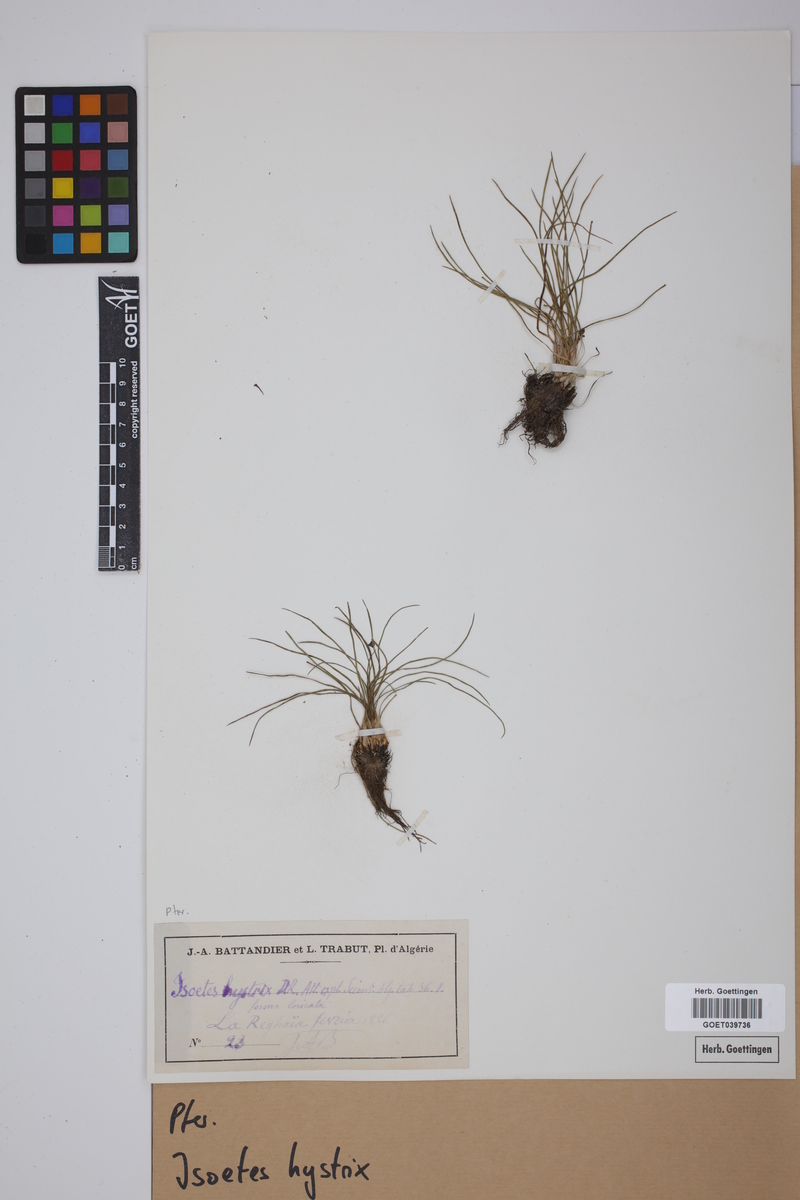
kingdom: Plantae
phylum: Tracheophyta
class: Lycopodiopsida
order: Isoetales
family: Isoetaceae
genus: Isoetes
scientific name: Isoetes histrix
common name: Land quillwort
